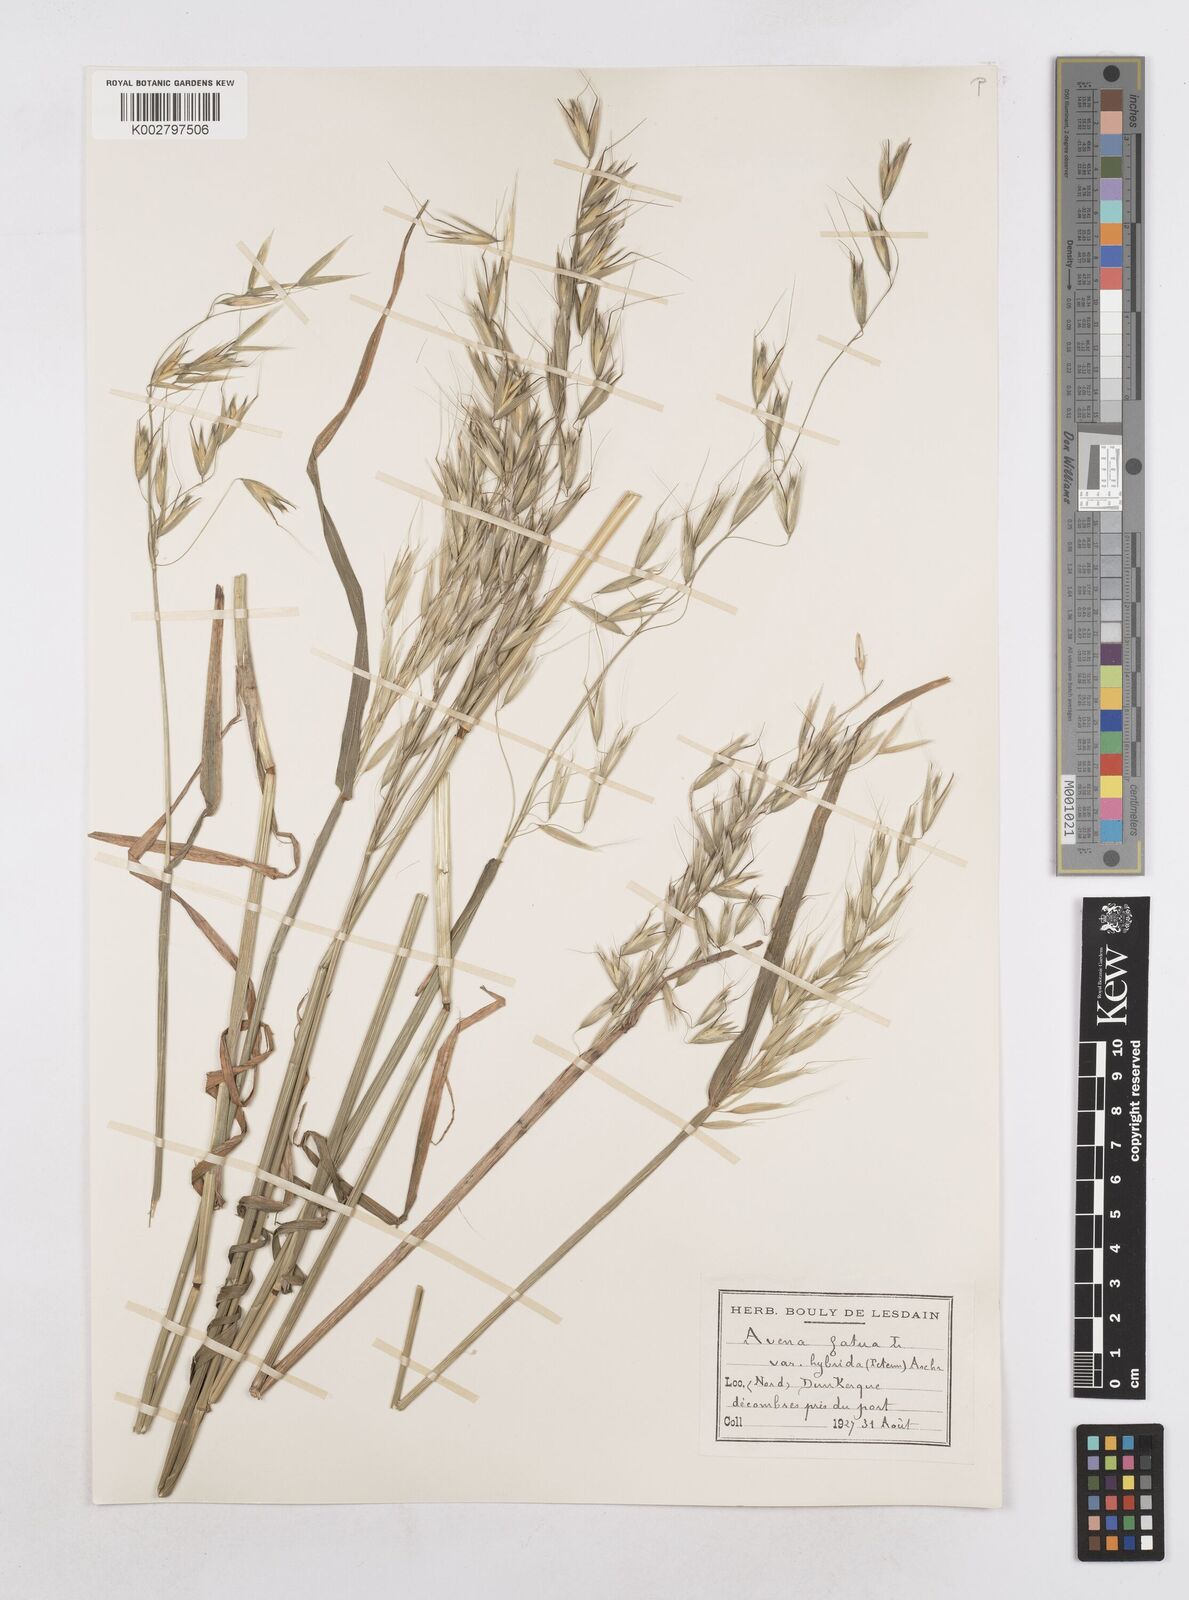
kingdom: Plantae
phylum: Tracheophyta
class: Liliopsida
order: Poales
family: Poaceae
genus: Avena
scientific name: Avena fatua
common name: Wild oat
